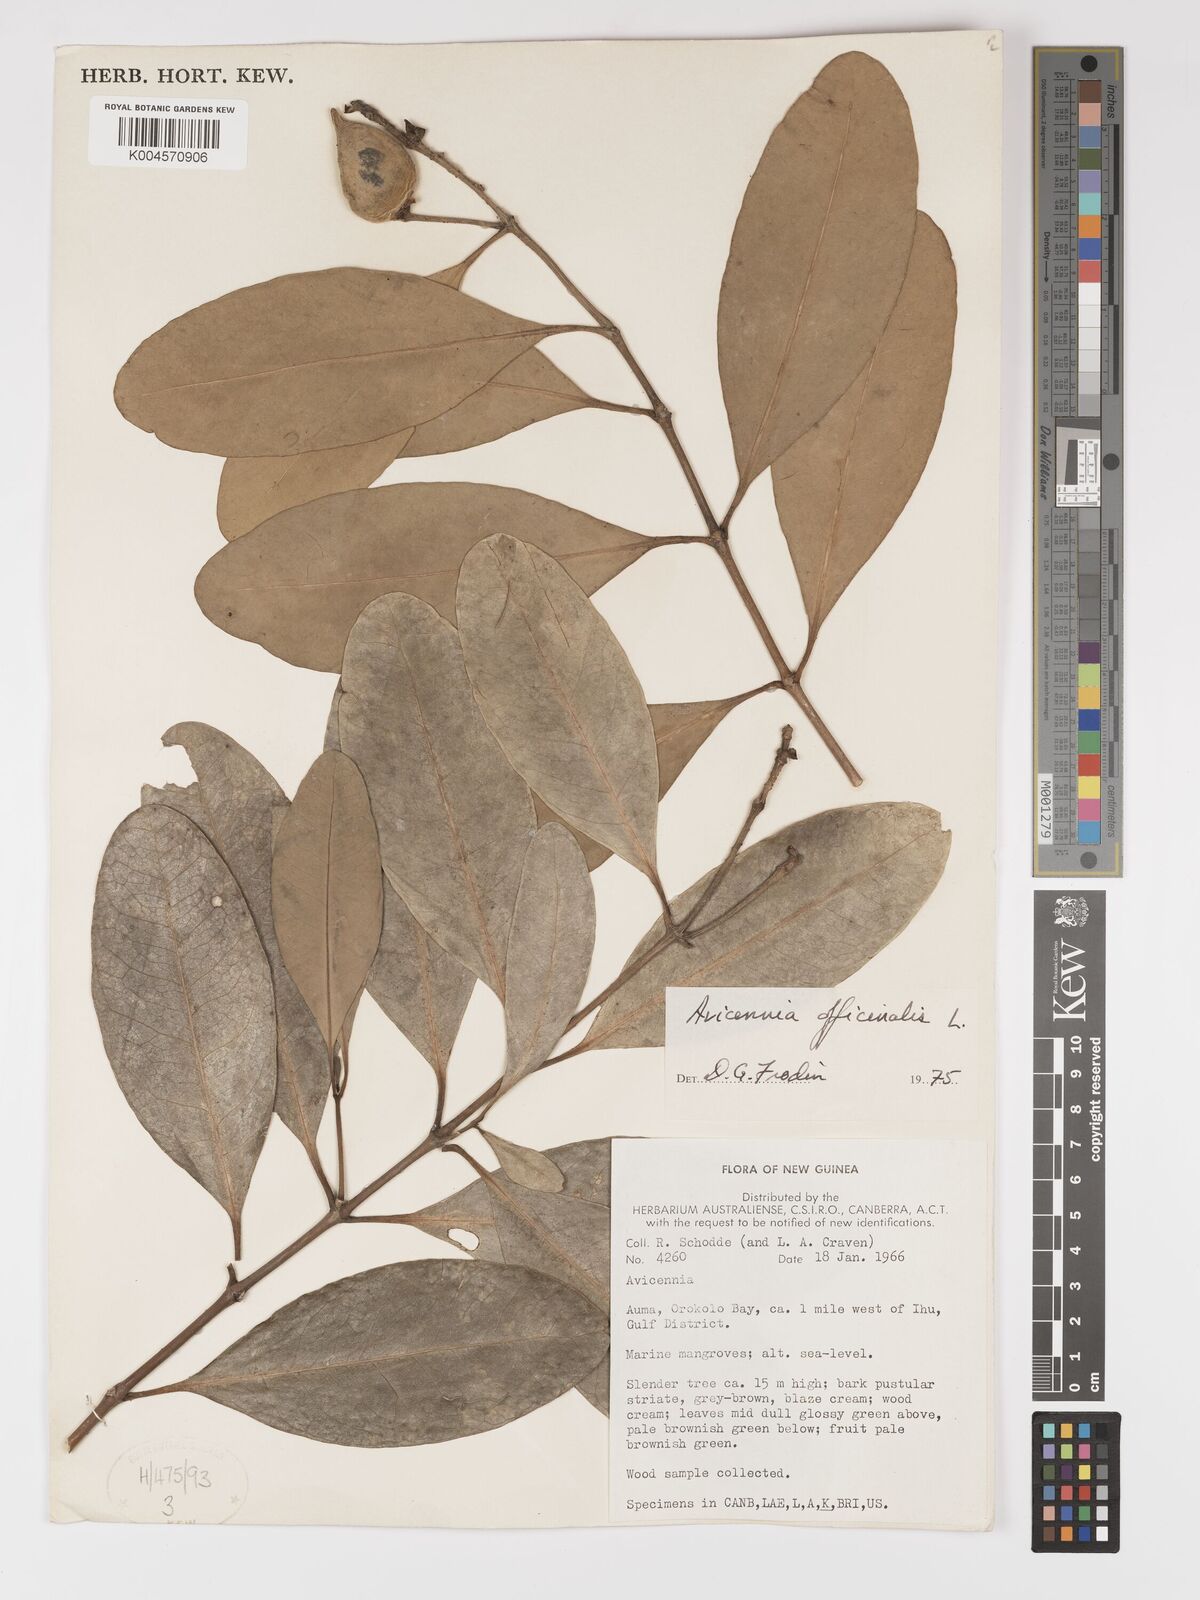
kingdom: Plantae
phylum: Tracheophyta
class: Magnoliopsida
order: Lamiales
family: Acanthaceae
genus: Avicennia
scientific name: Avicennia officinalis
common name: Baen
